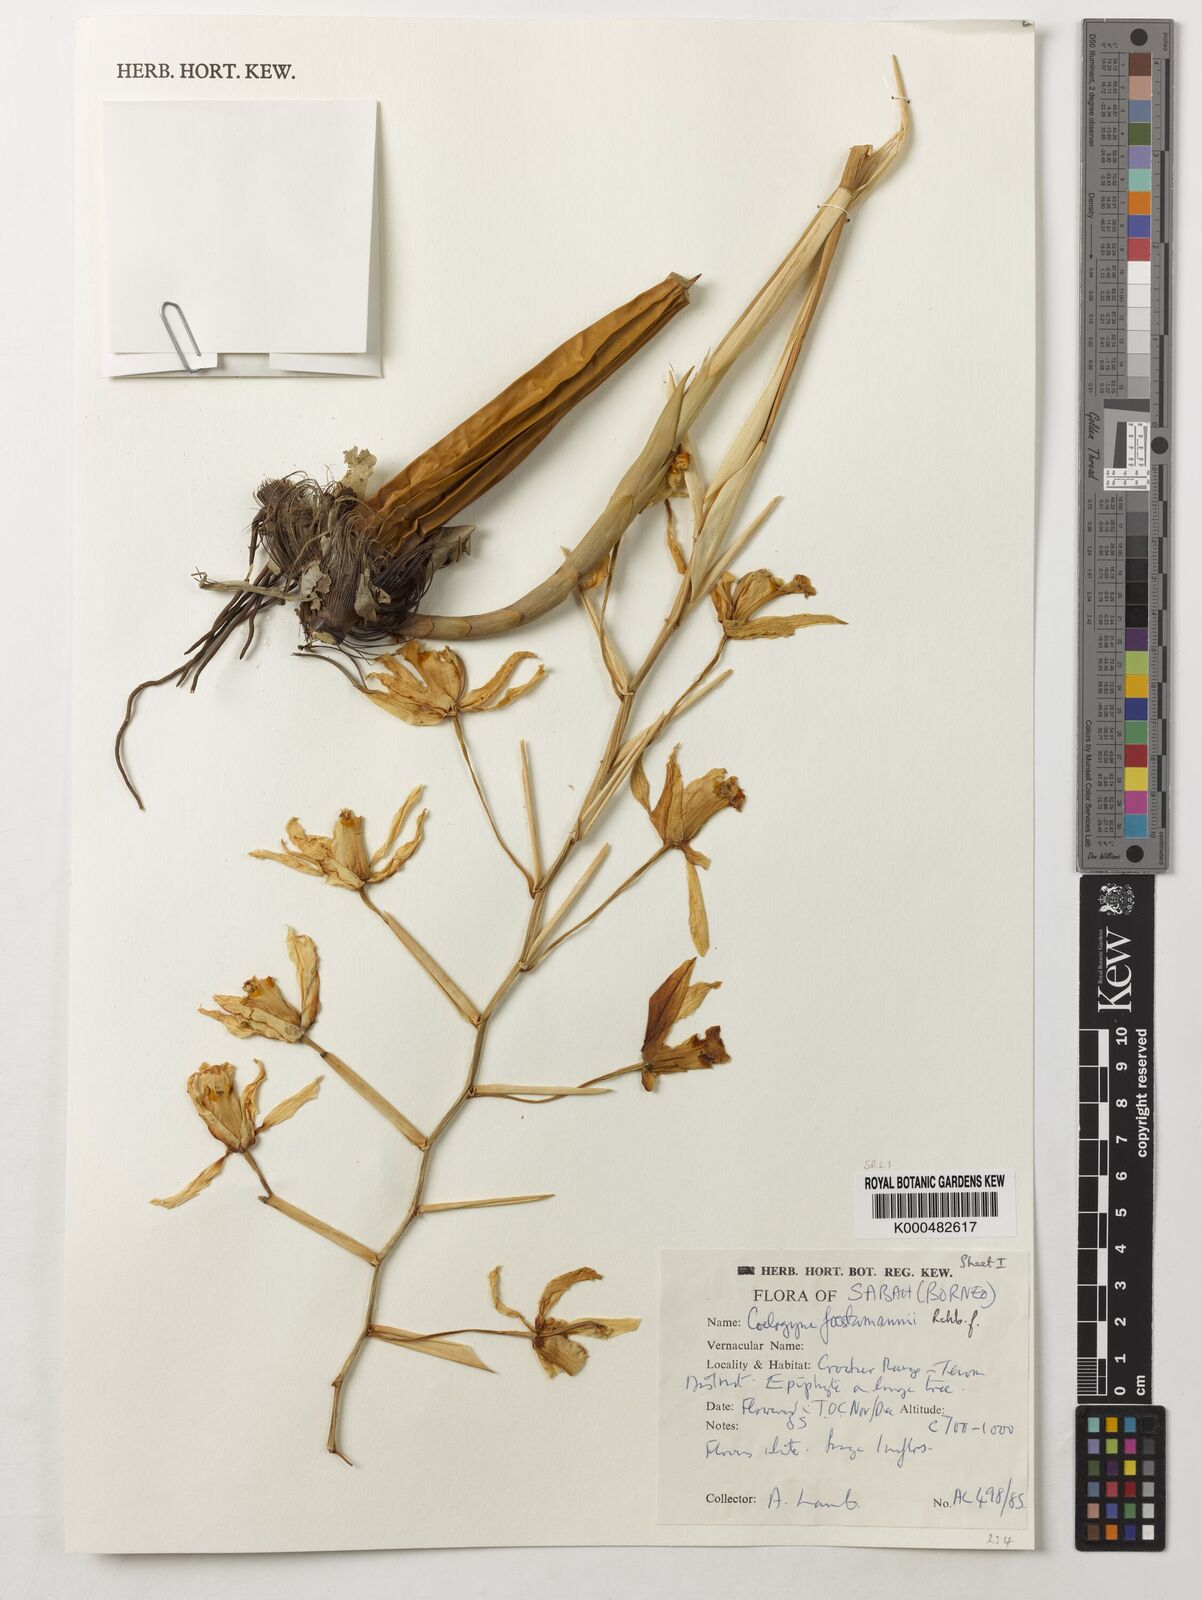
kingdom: Plantae
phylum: Tracheophyta
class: Liliopsida
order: Asparagales
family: Orchidaceae
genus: Coelogyne
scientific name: Coelogyne
